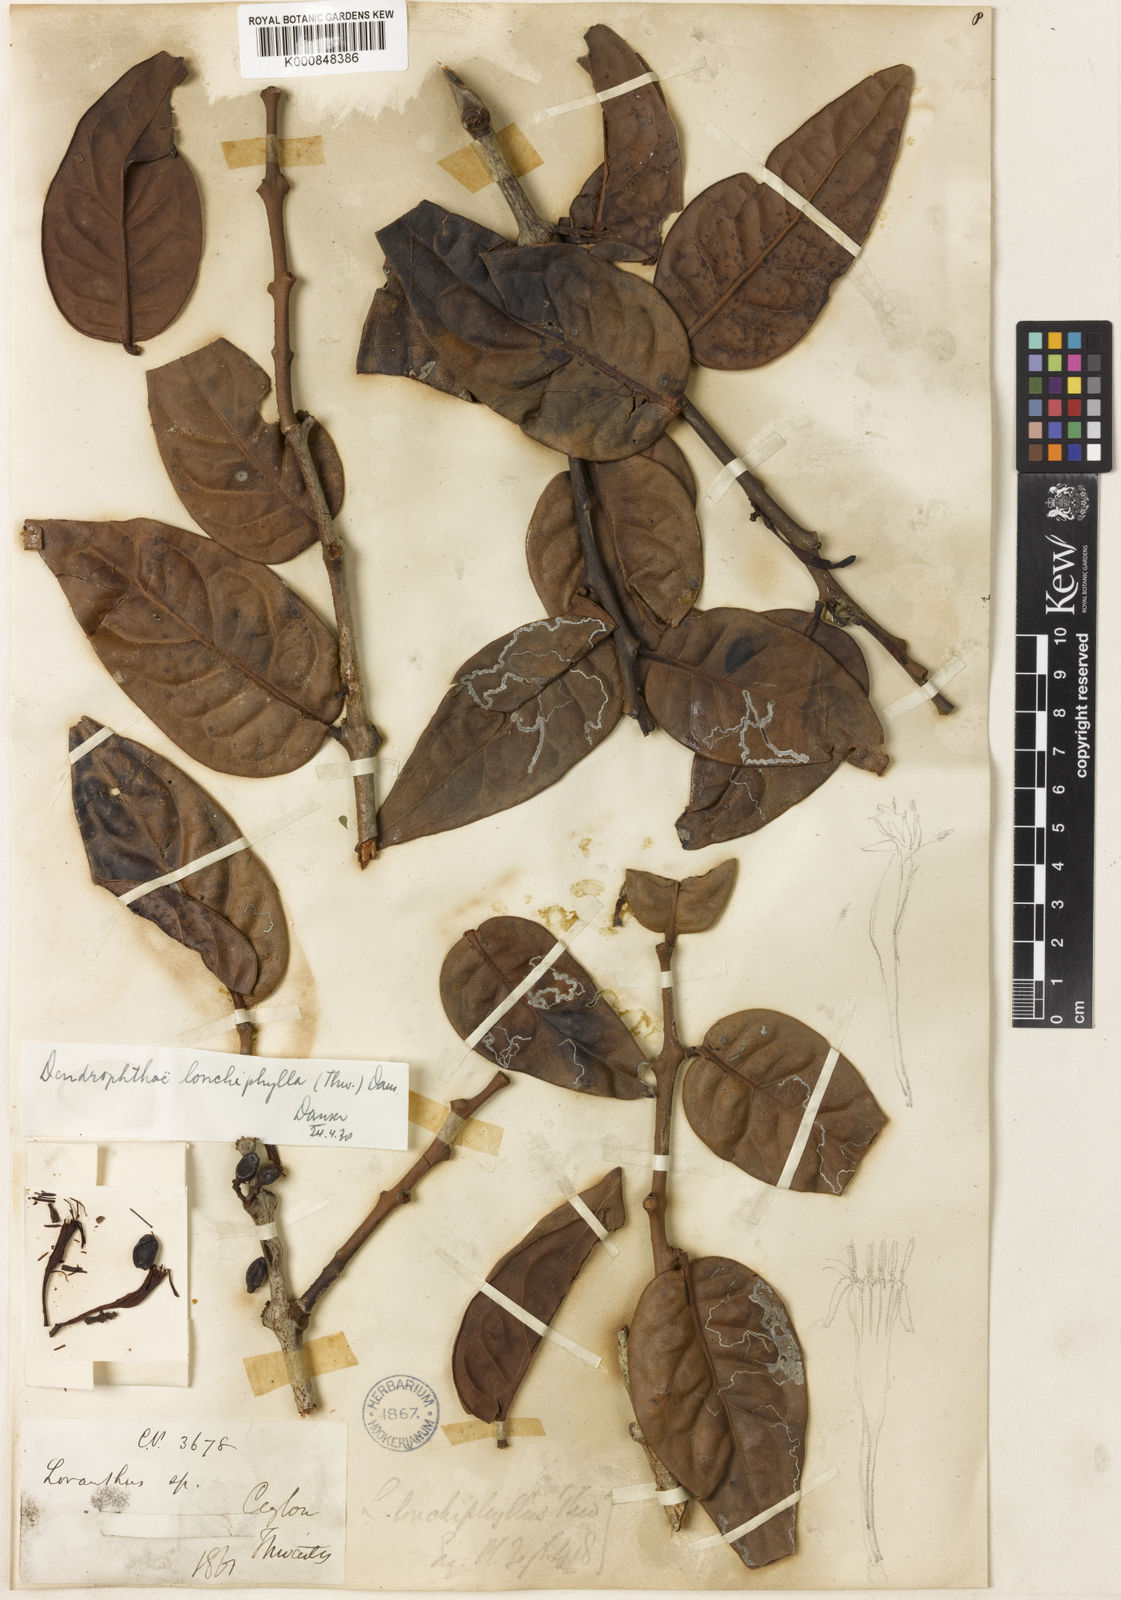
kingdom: Plantae
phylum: Tracheophyta
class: Magnoliopsida
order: Santalales
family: Loranthaceae
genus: Dendrophthoe
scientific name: Dendrophthoe lonchiphylla
